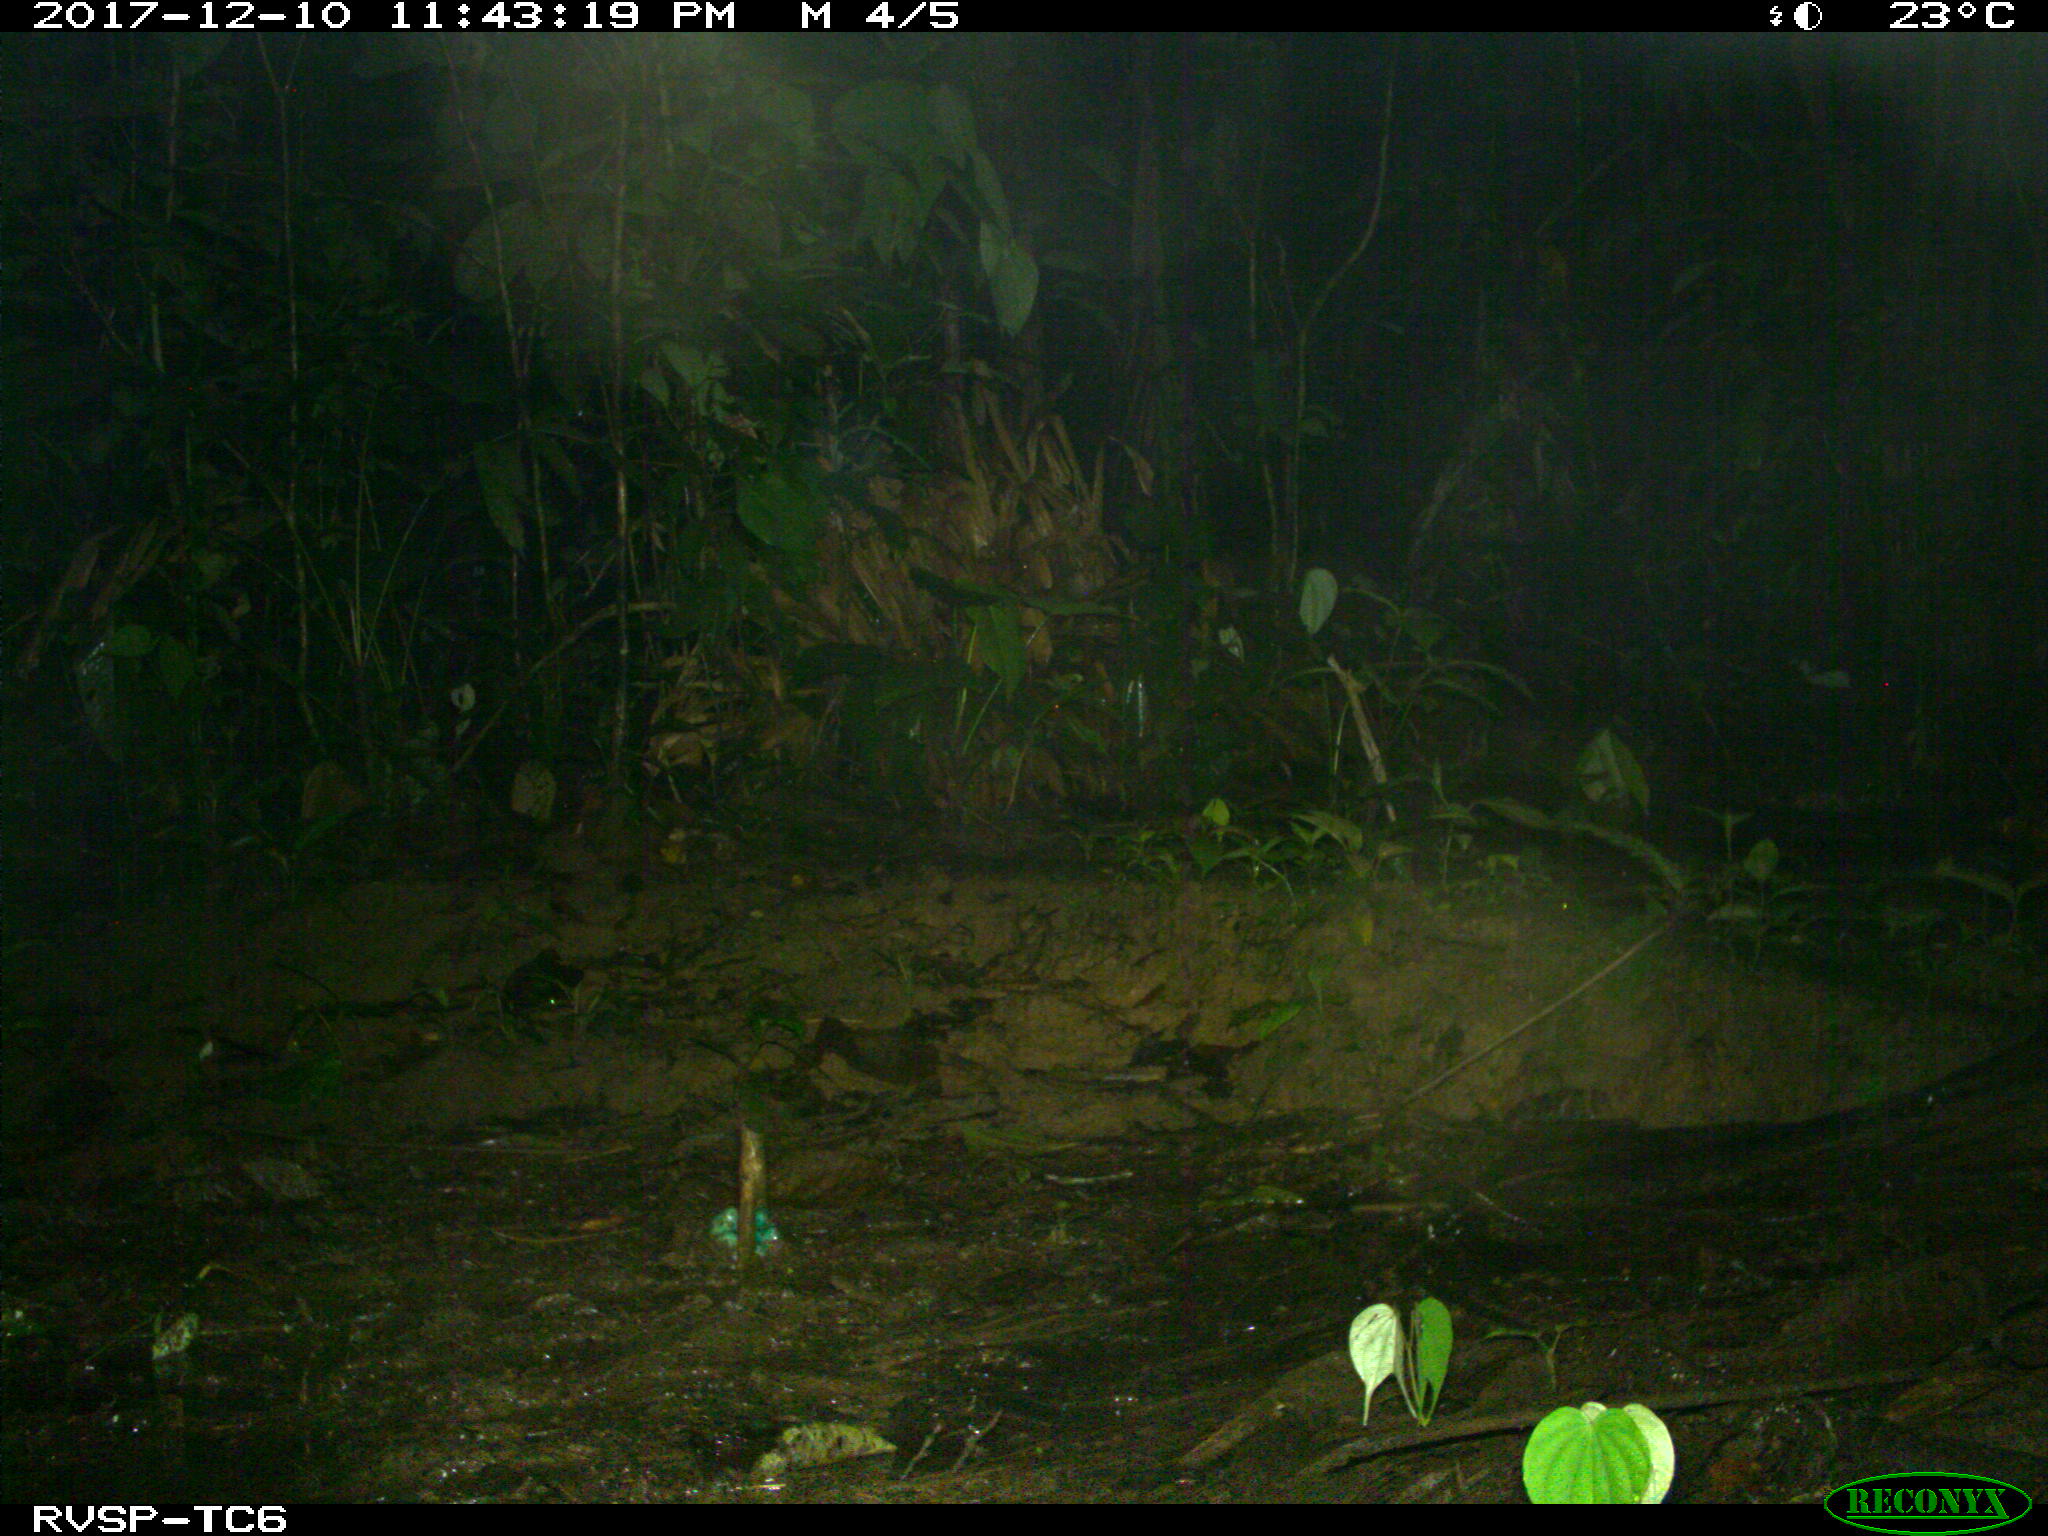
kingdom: Animalia
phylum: Chordata
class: Mammalia
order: Rodentia
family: Cuniculidae
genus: Cuniculus
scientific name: Cuniculus paca
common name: Lowland paca
